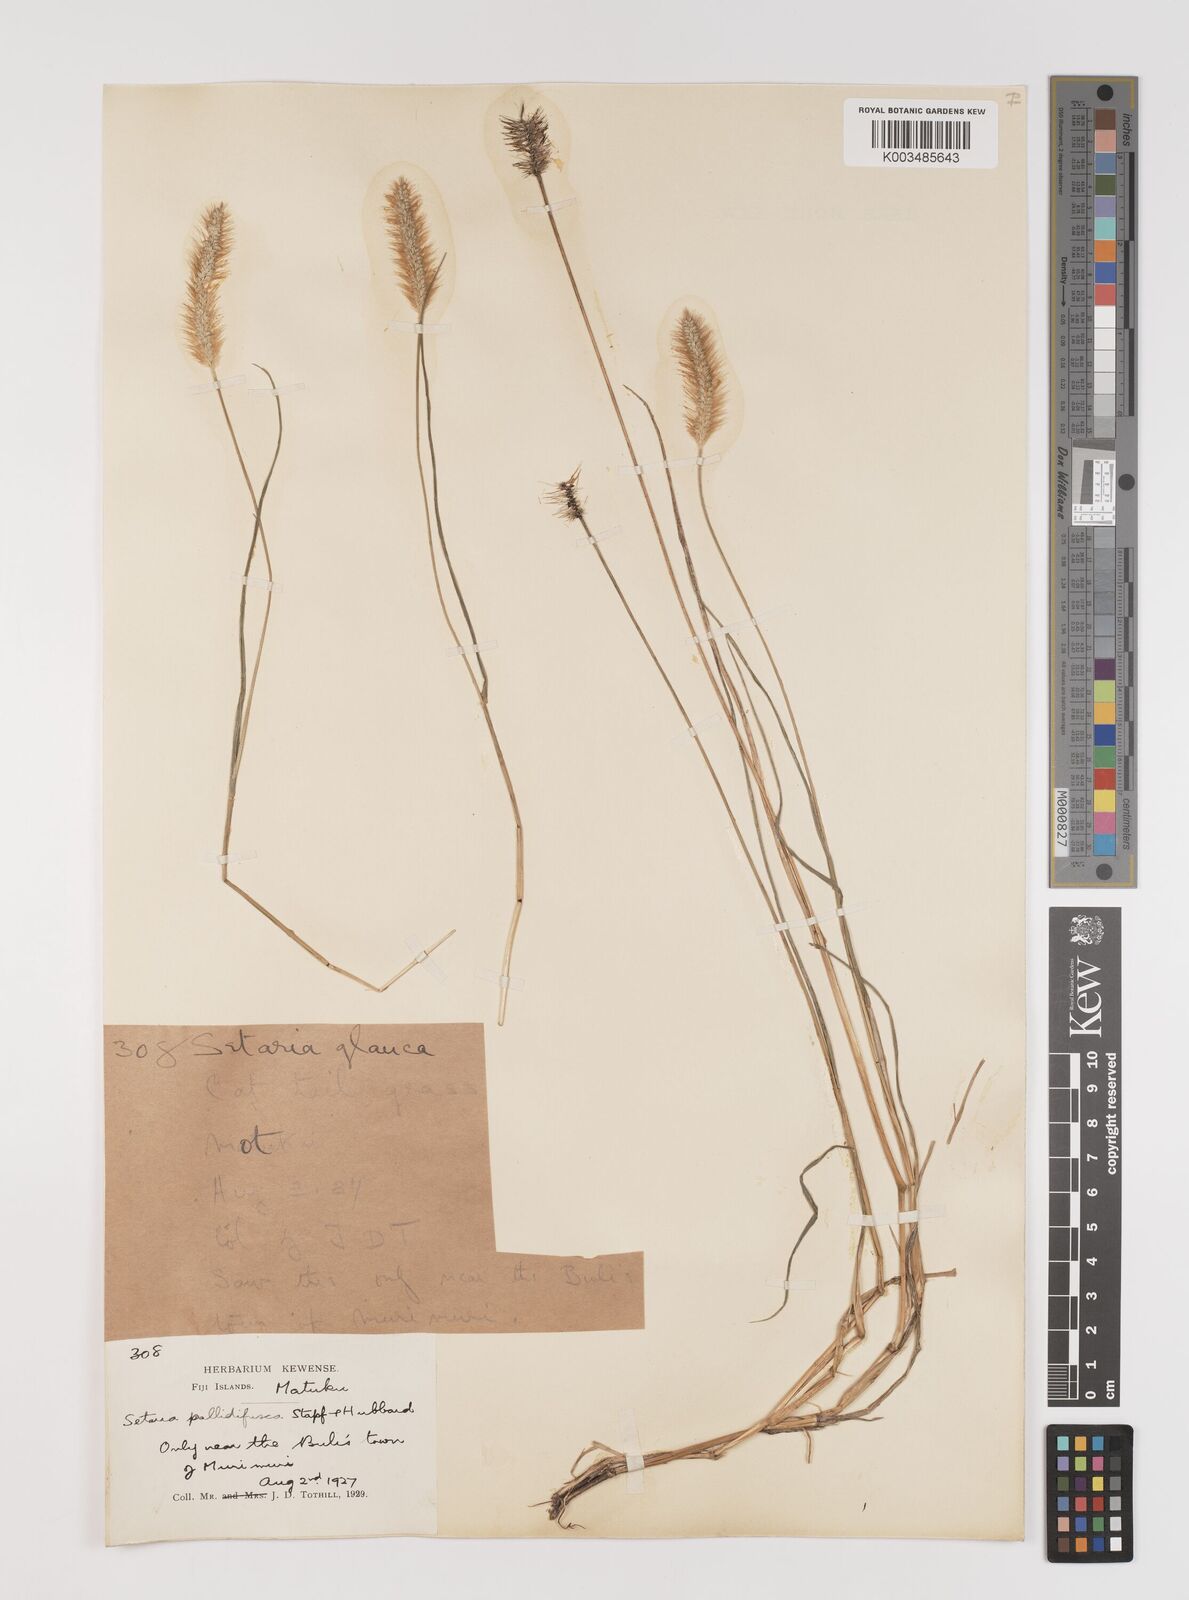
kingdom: Plantae
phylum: Tracheophyta
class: Liliopsida
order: Poales
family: Poaceae
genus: Setaria
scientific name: Setaria pumila
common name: Yellow bristle-grass
